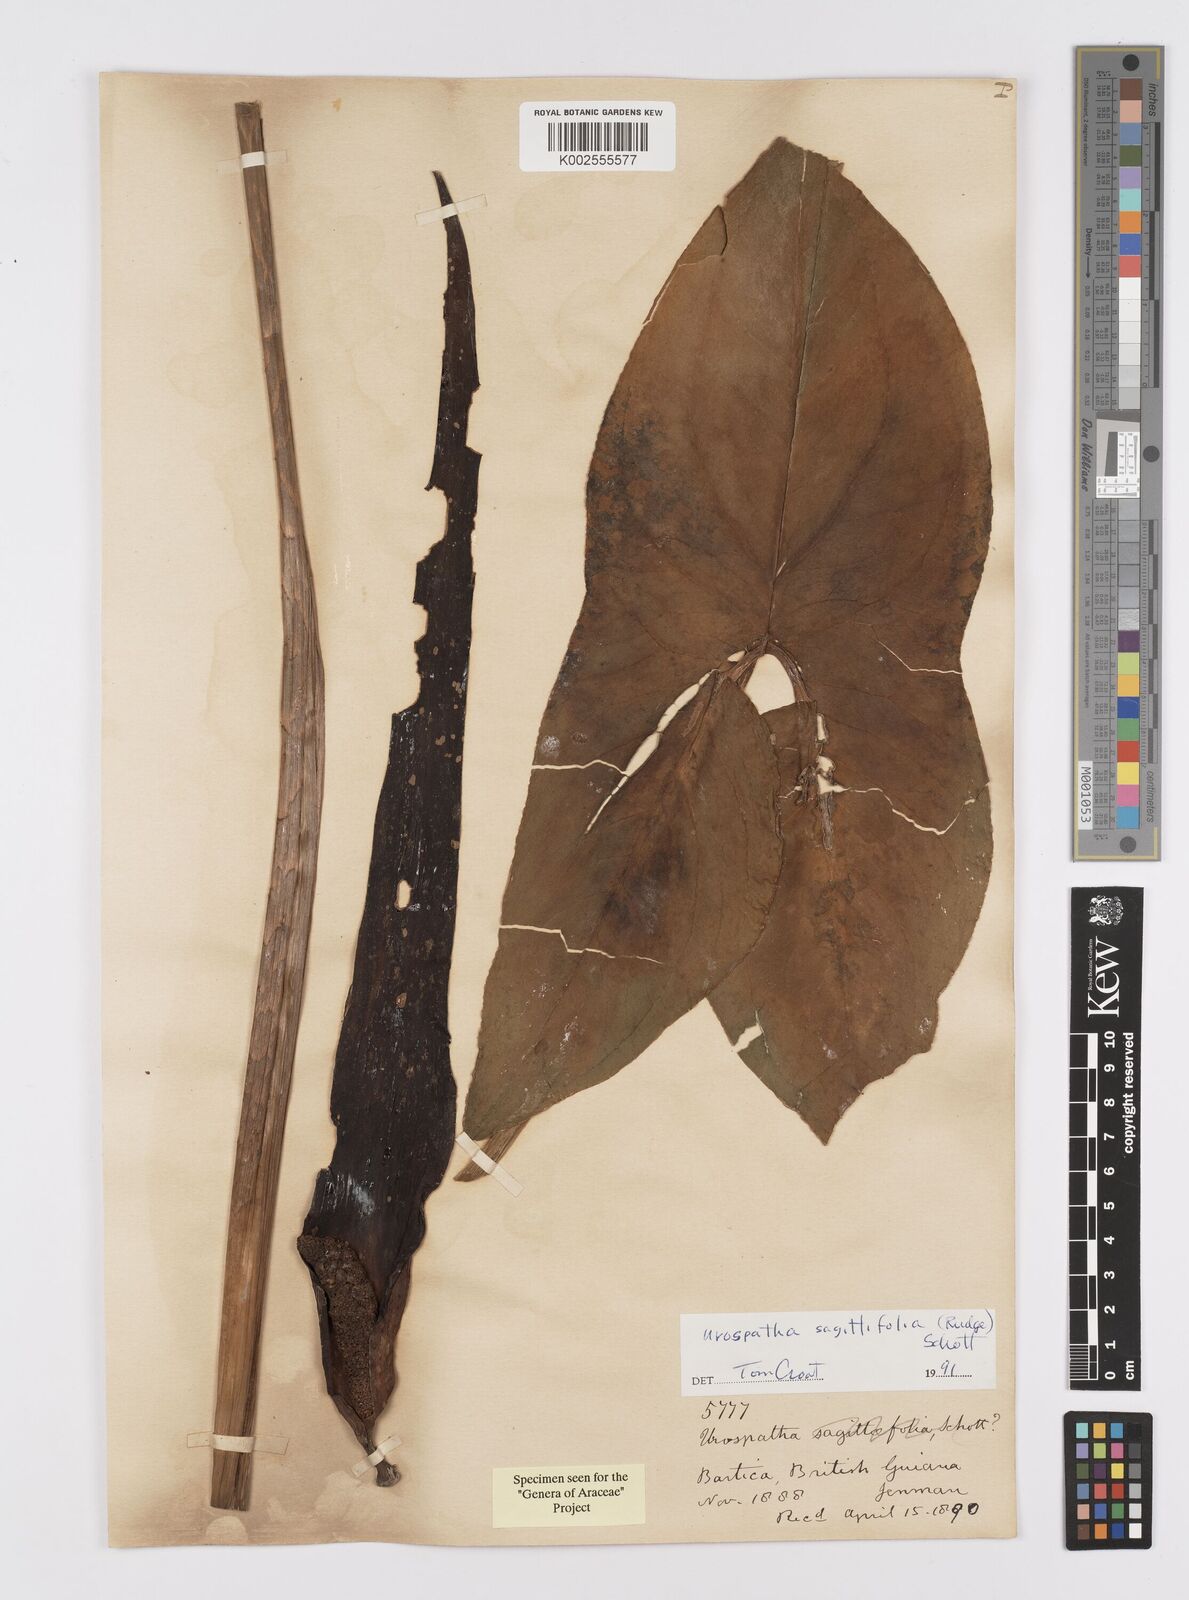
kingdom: Plantae
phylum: Tracheophyta
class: Liliopsida
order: Alismatales
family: Araceae
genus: Urospatha
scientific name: Urospatha sagittifolia
